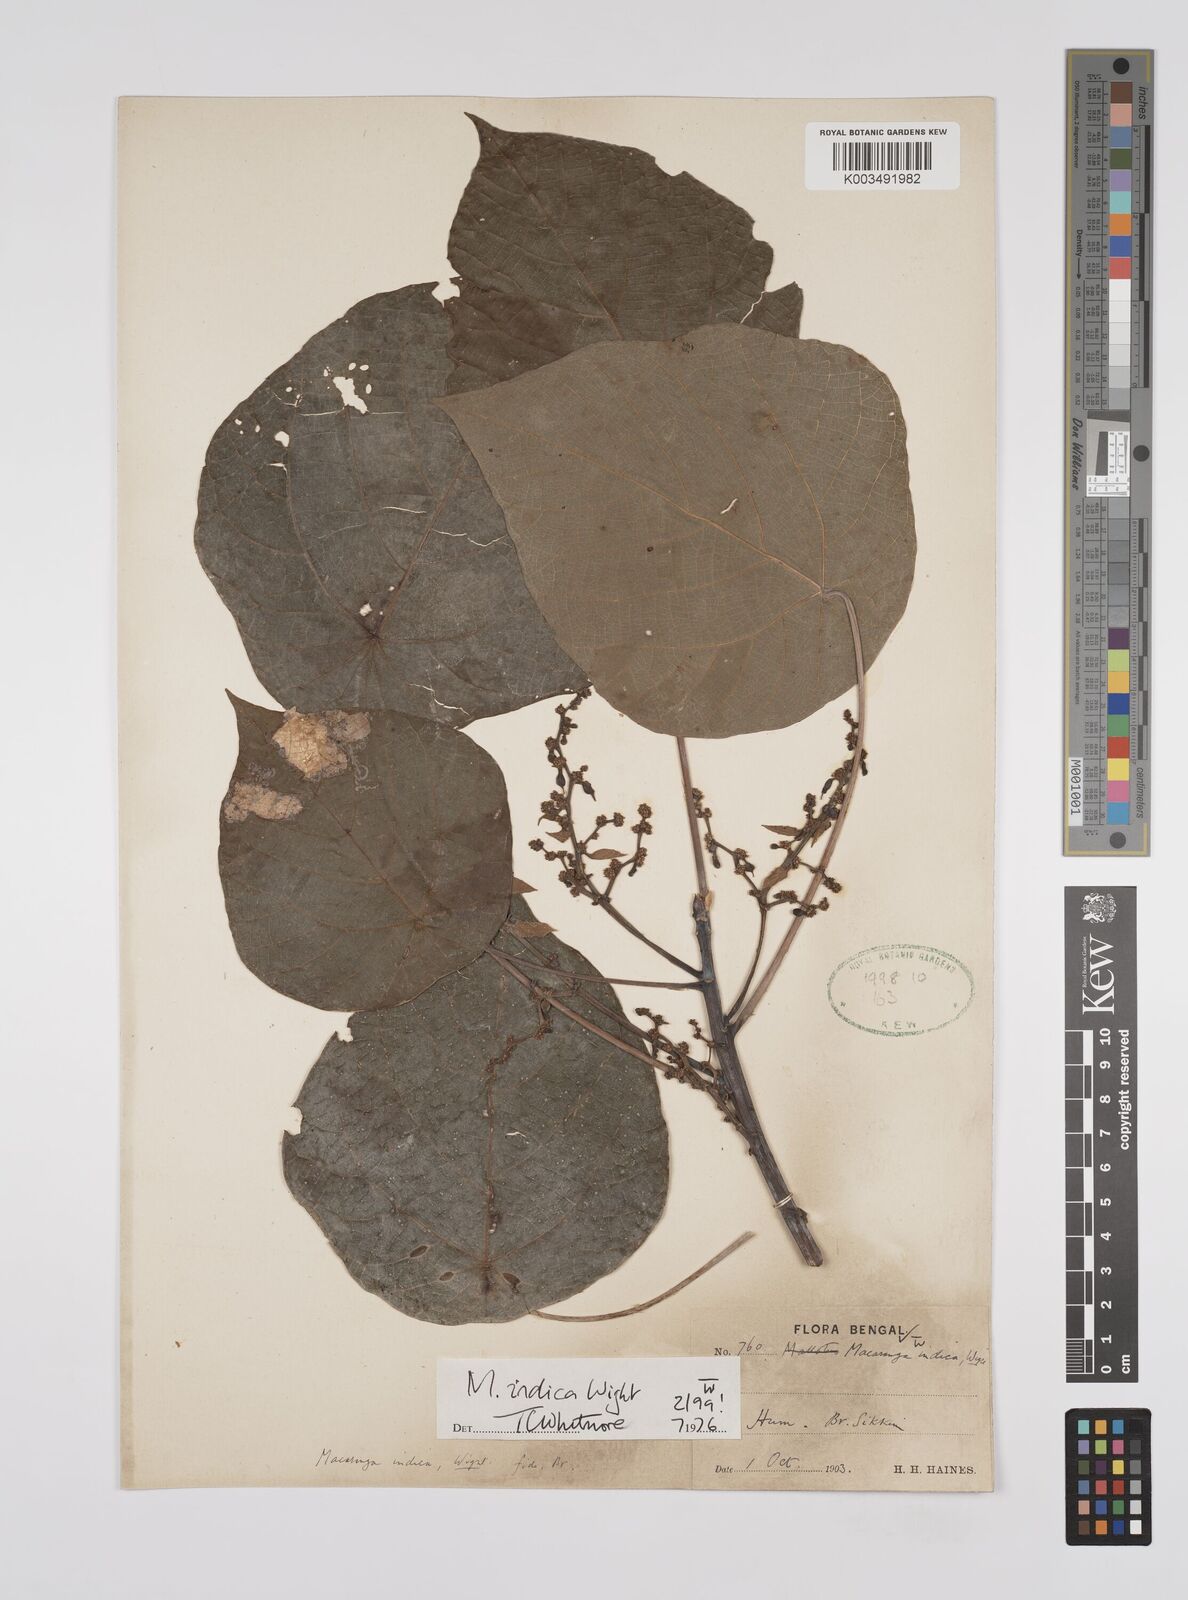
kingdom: Plantae
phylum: Tracheophyta
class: Magnoliopsida
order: Malpighiales
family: Euphorbiaceae
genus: Macaranga
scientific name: Macaranga indica
